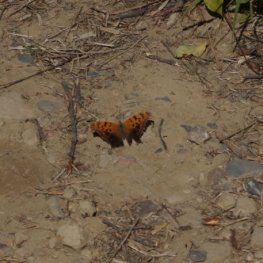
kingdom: Animalia
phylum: Arthropoda
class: Insecta
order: Lepidoptera
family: Nymphalidae
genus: Polygonia
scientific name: Polygonia interrogationis
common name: Question Mark
